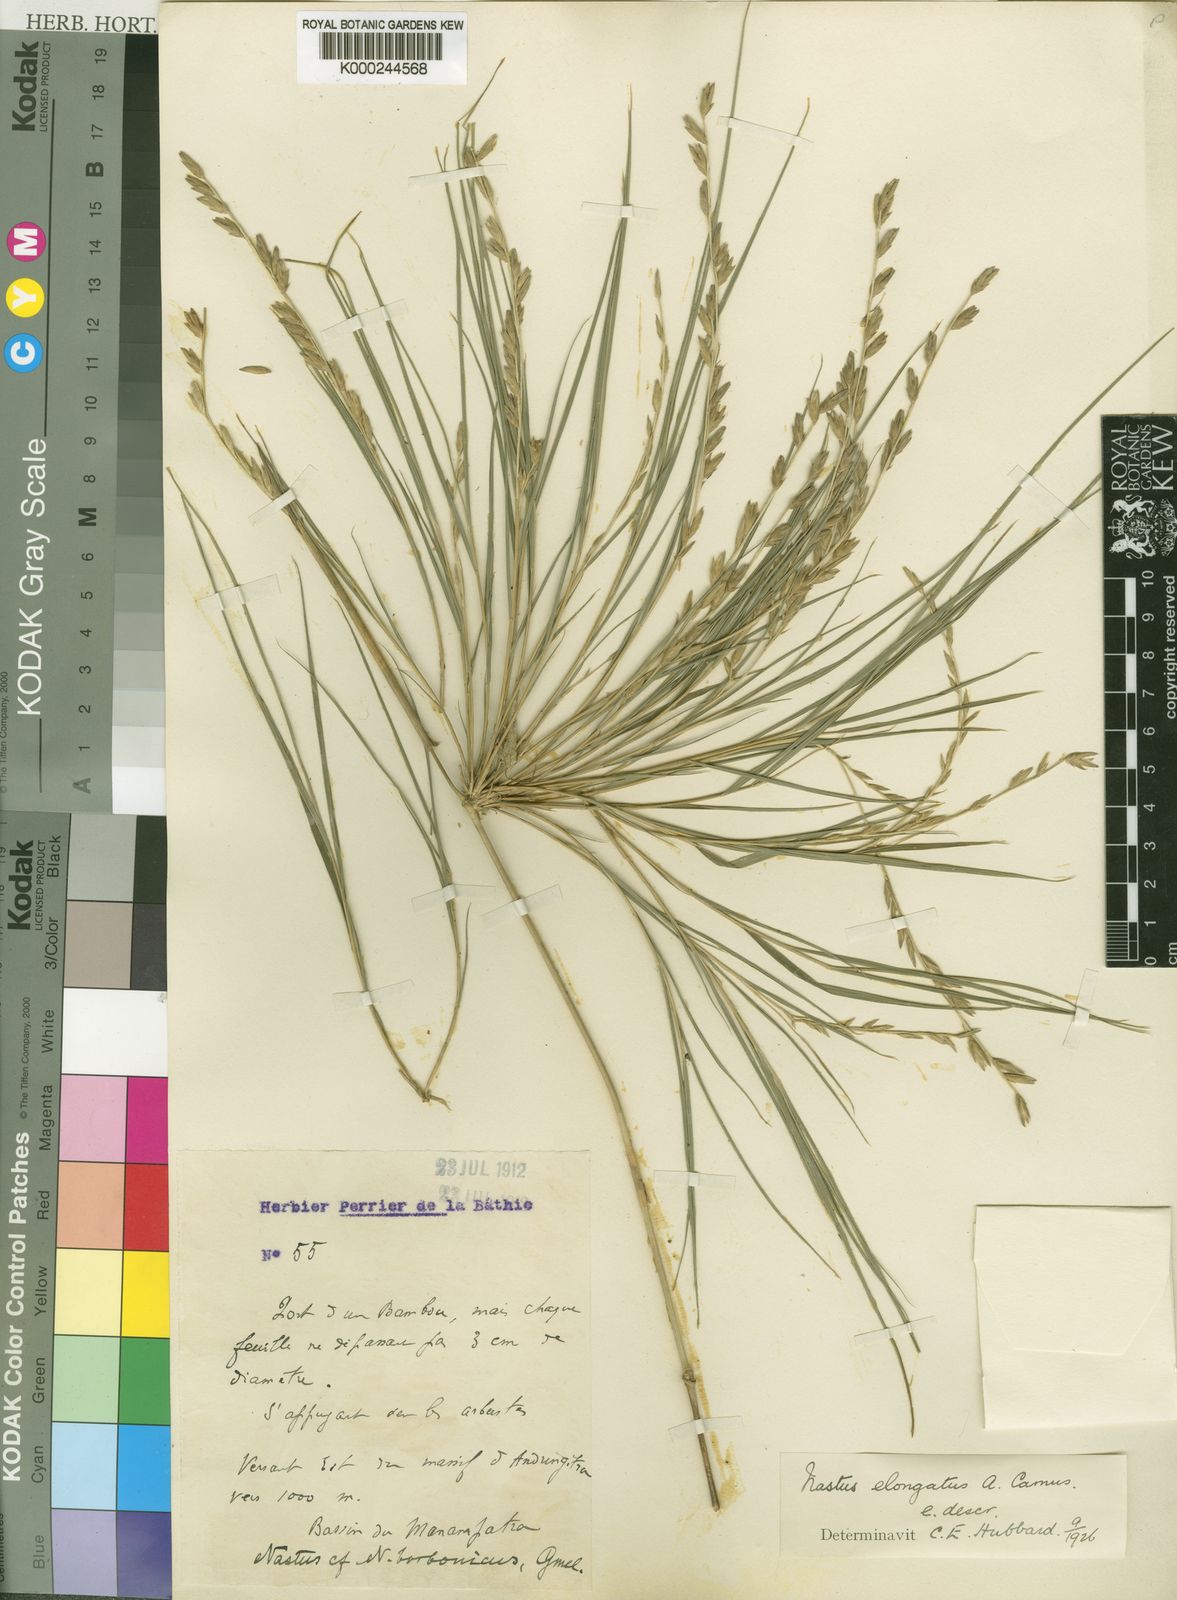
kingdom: Plantae
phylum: Tracheophyta
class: Liliopsida
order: Poales
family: Poaceae
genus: Nastus
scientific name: Nastus elongatus
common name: Spider bamboo
